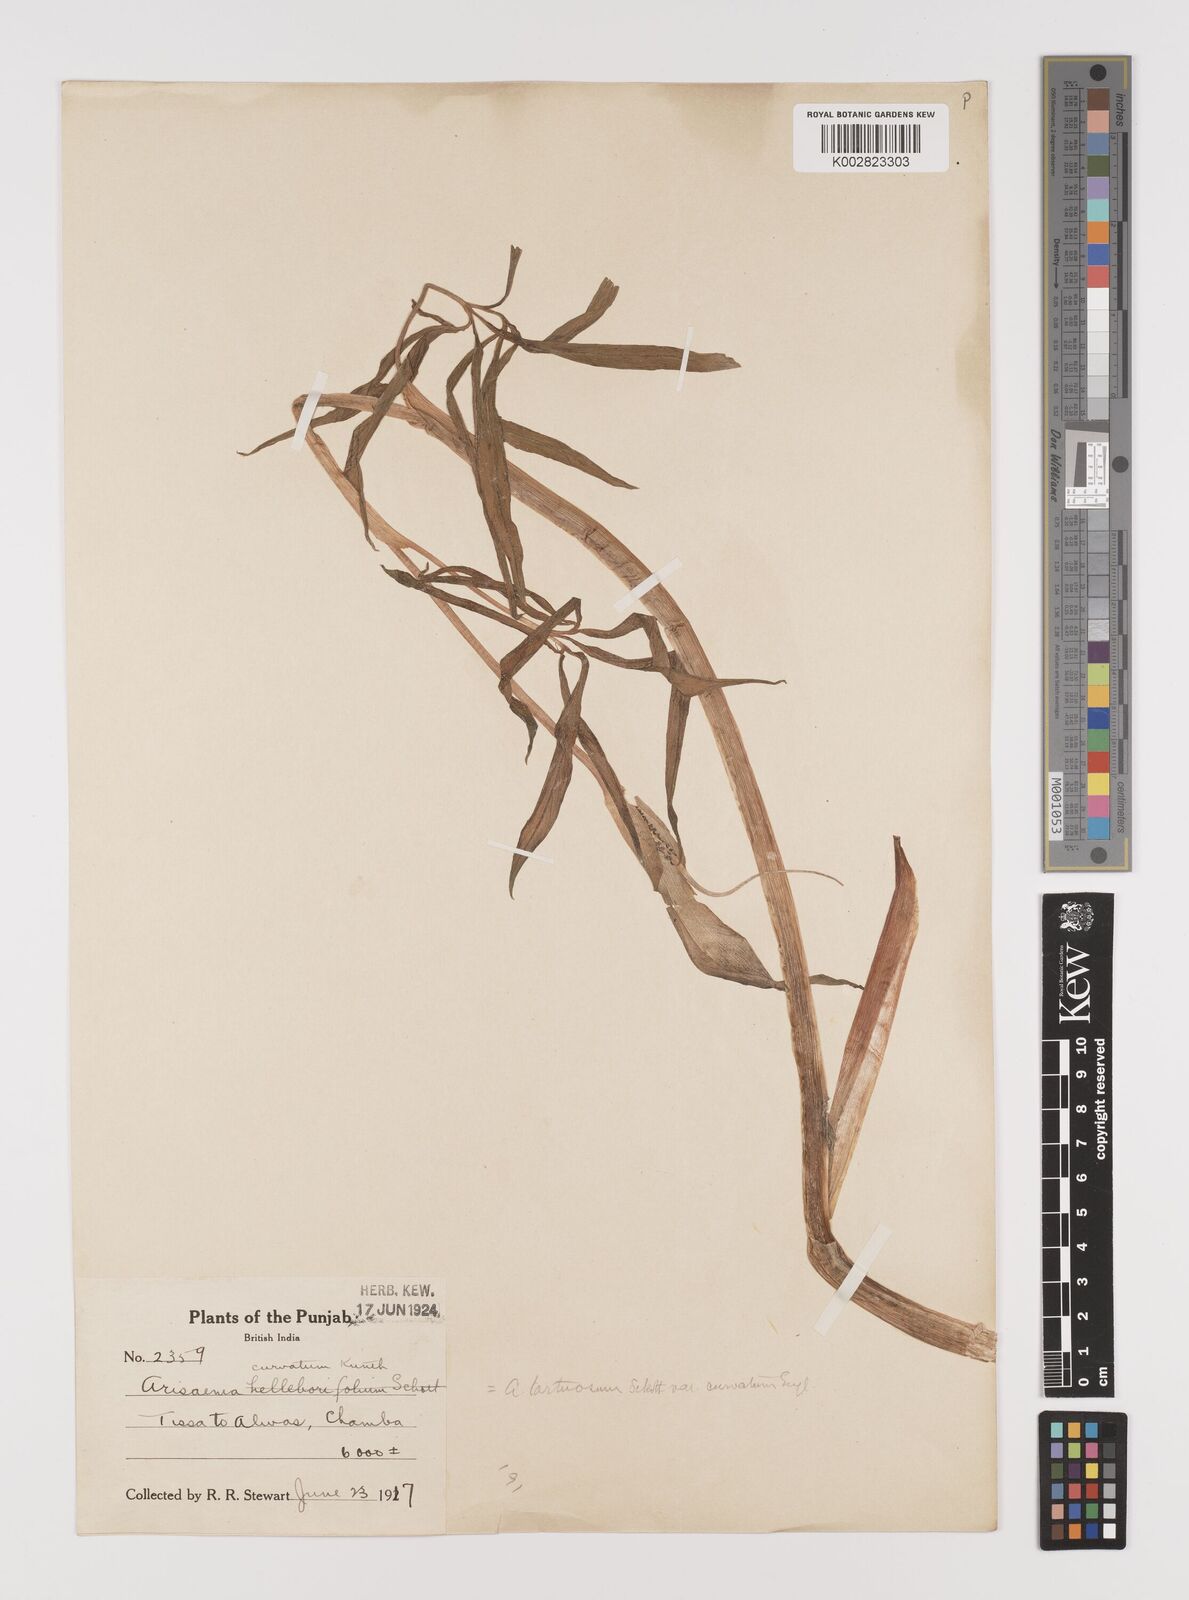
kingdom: Plantae
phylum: Tracheophyta
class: Liliopsida
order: Alismatales
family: Araceae
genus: Arisaema
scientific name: Arisaema tortuosum
